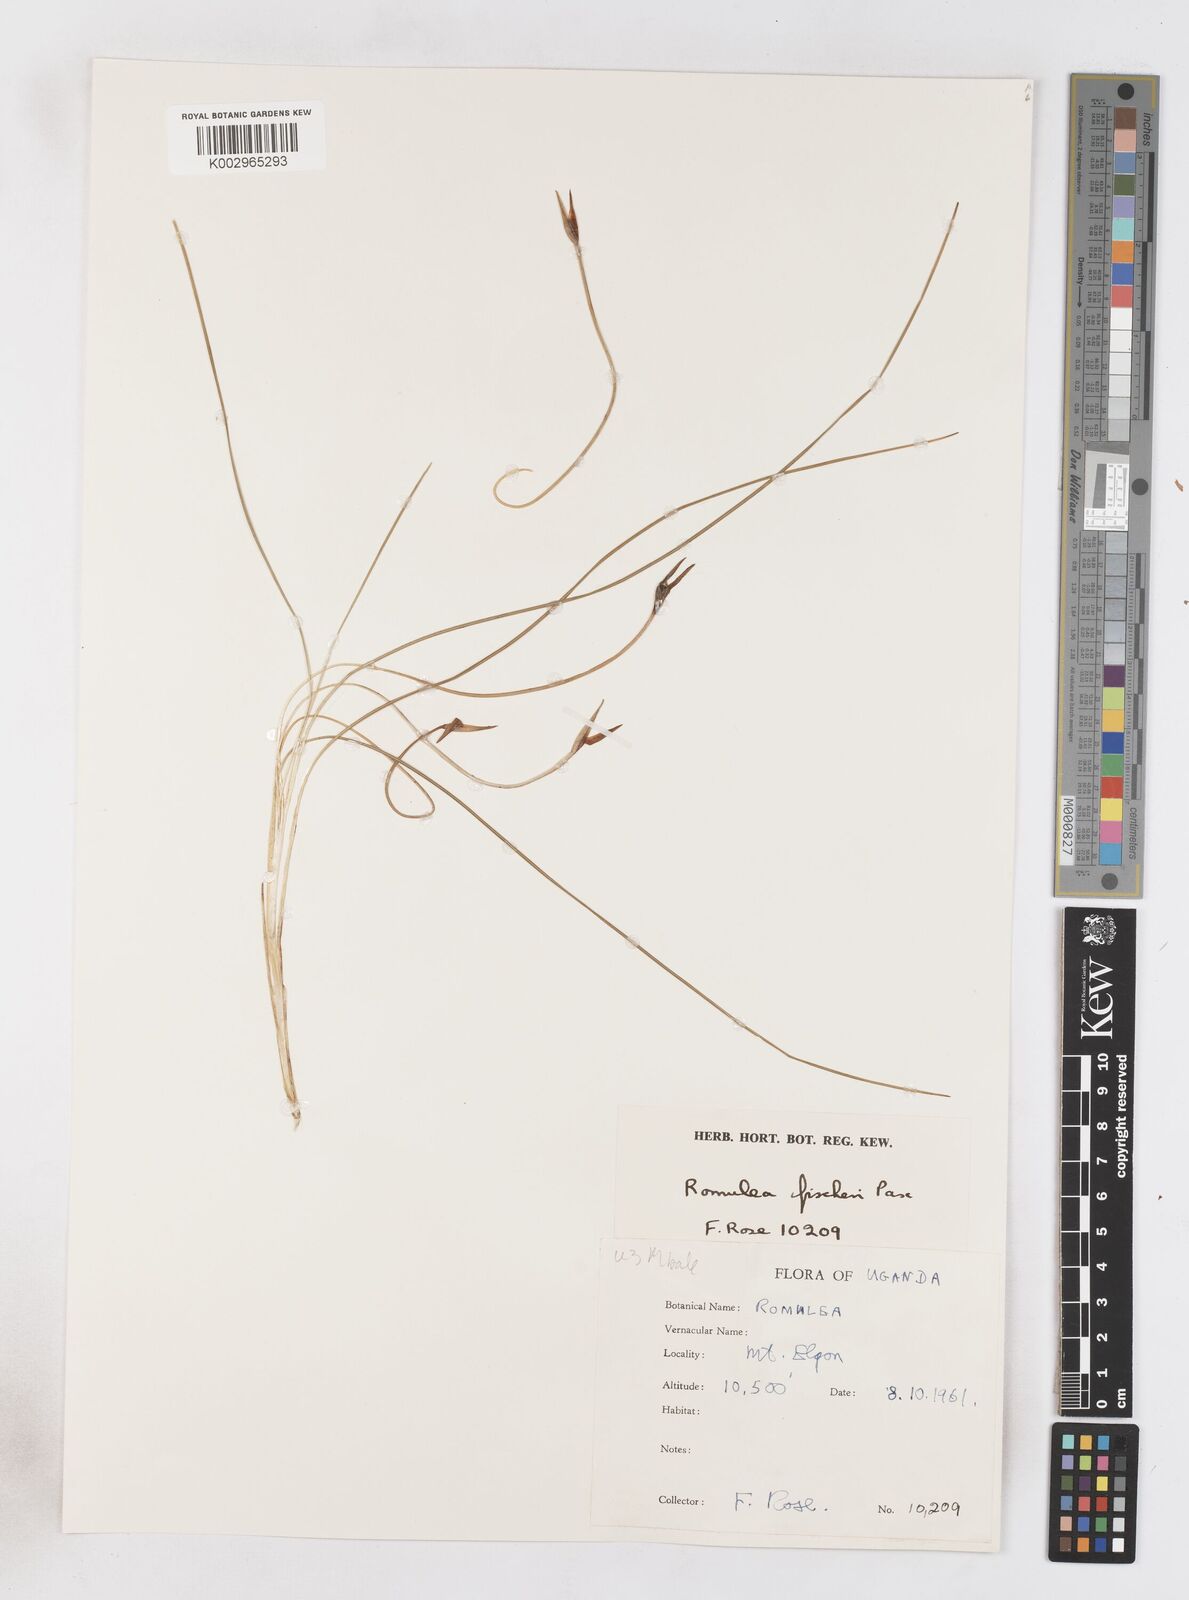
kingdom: Plantae
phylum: Tracheophyta
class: Liliopsida
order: Asparagales
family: Iridaceae
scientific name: Iridaceae
